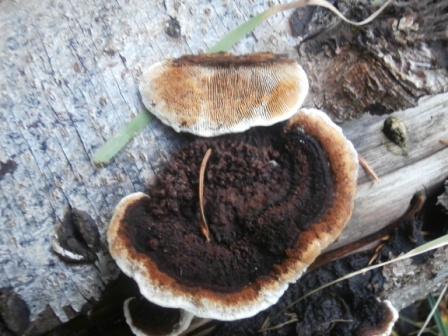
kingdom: Fungi
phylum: Basidiomycota
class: Agaricomycetes
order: Gloeophyllales
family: Gloeophyllaceae
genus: Gloeophyllum
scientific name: Gloeophyllum sepiarium
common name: fyrre-korkhat
